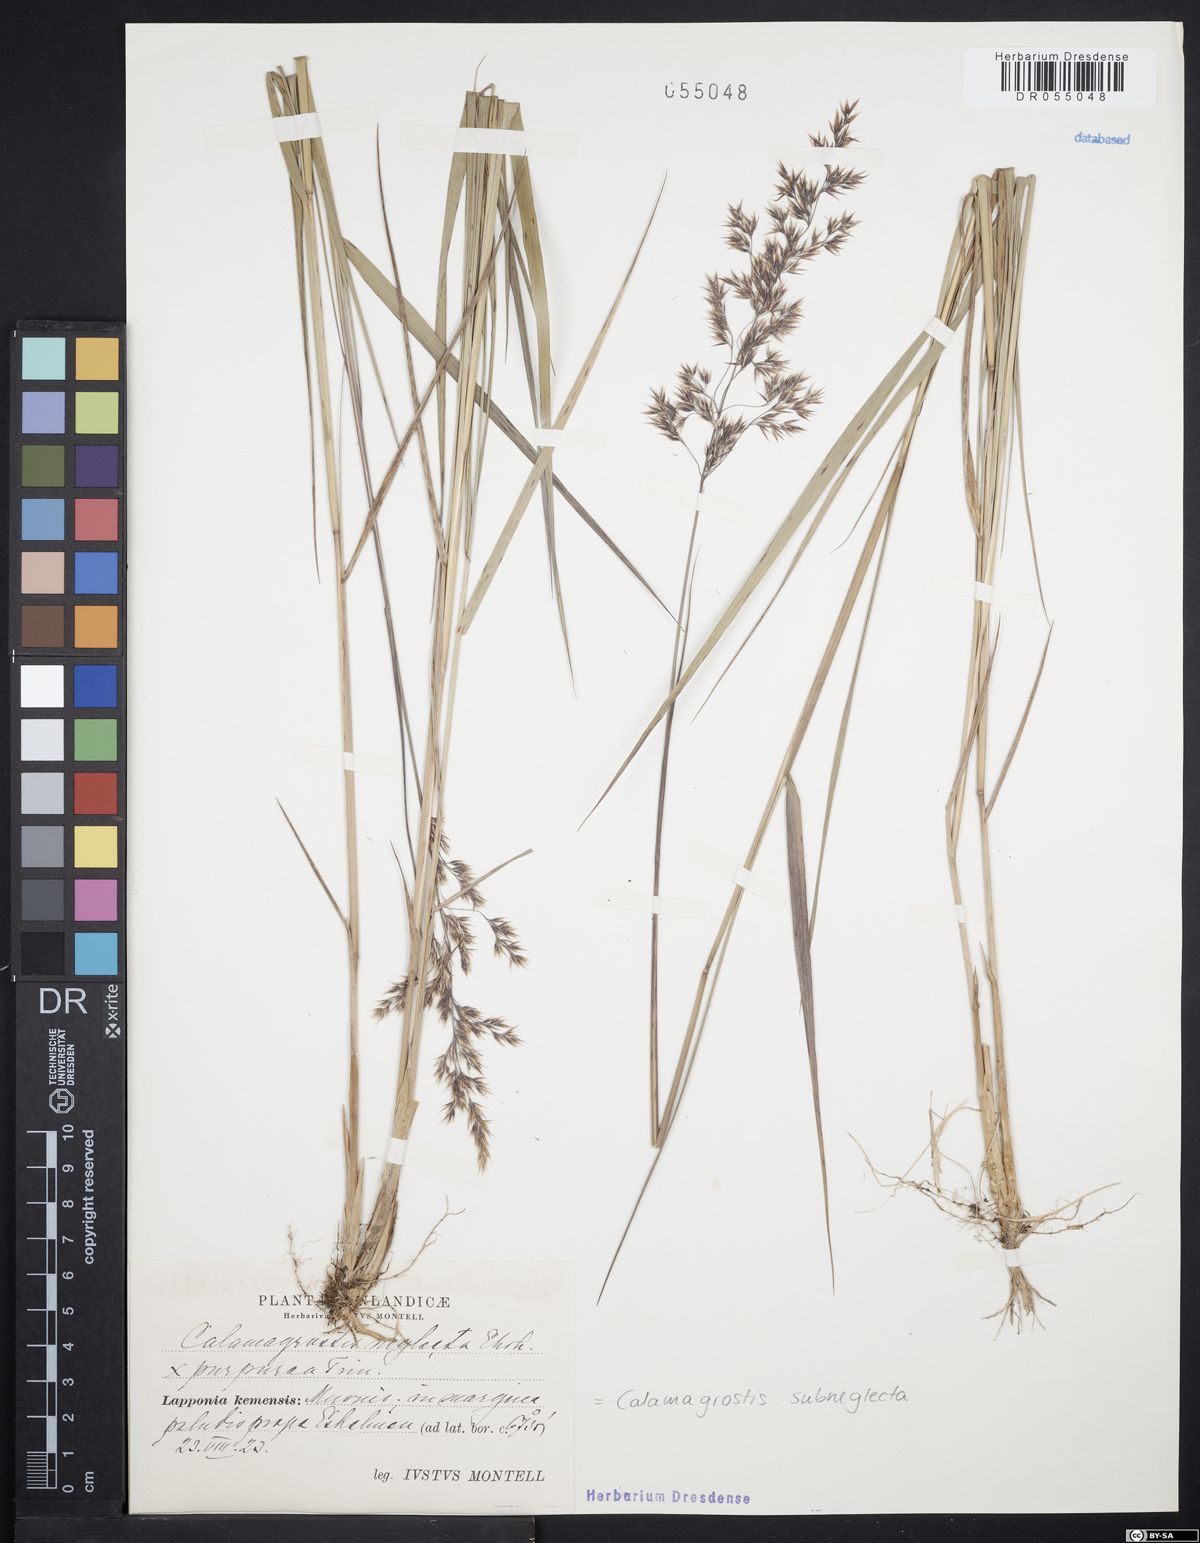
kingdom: Plantae
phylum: Tracheophyta
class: Liliopsida
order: Poales
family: Poaceae
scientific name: Poaceae
